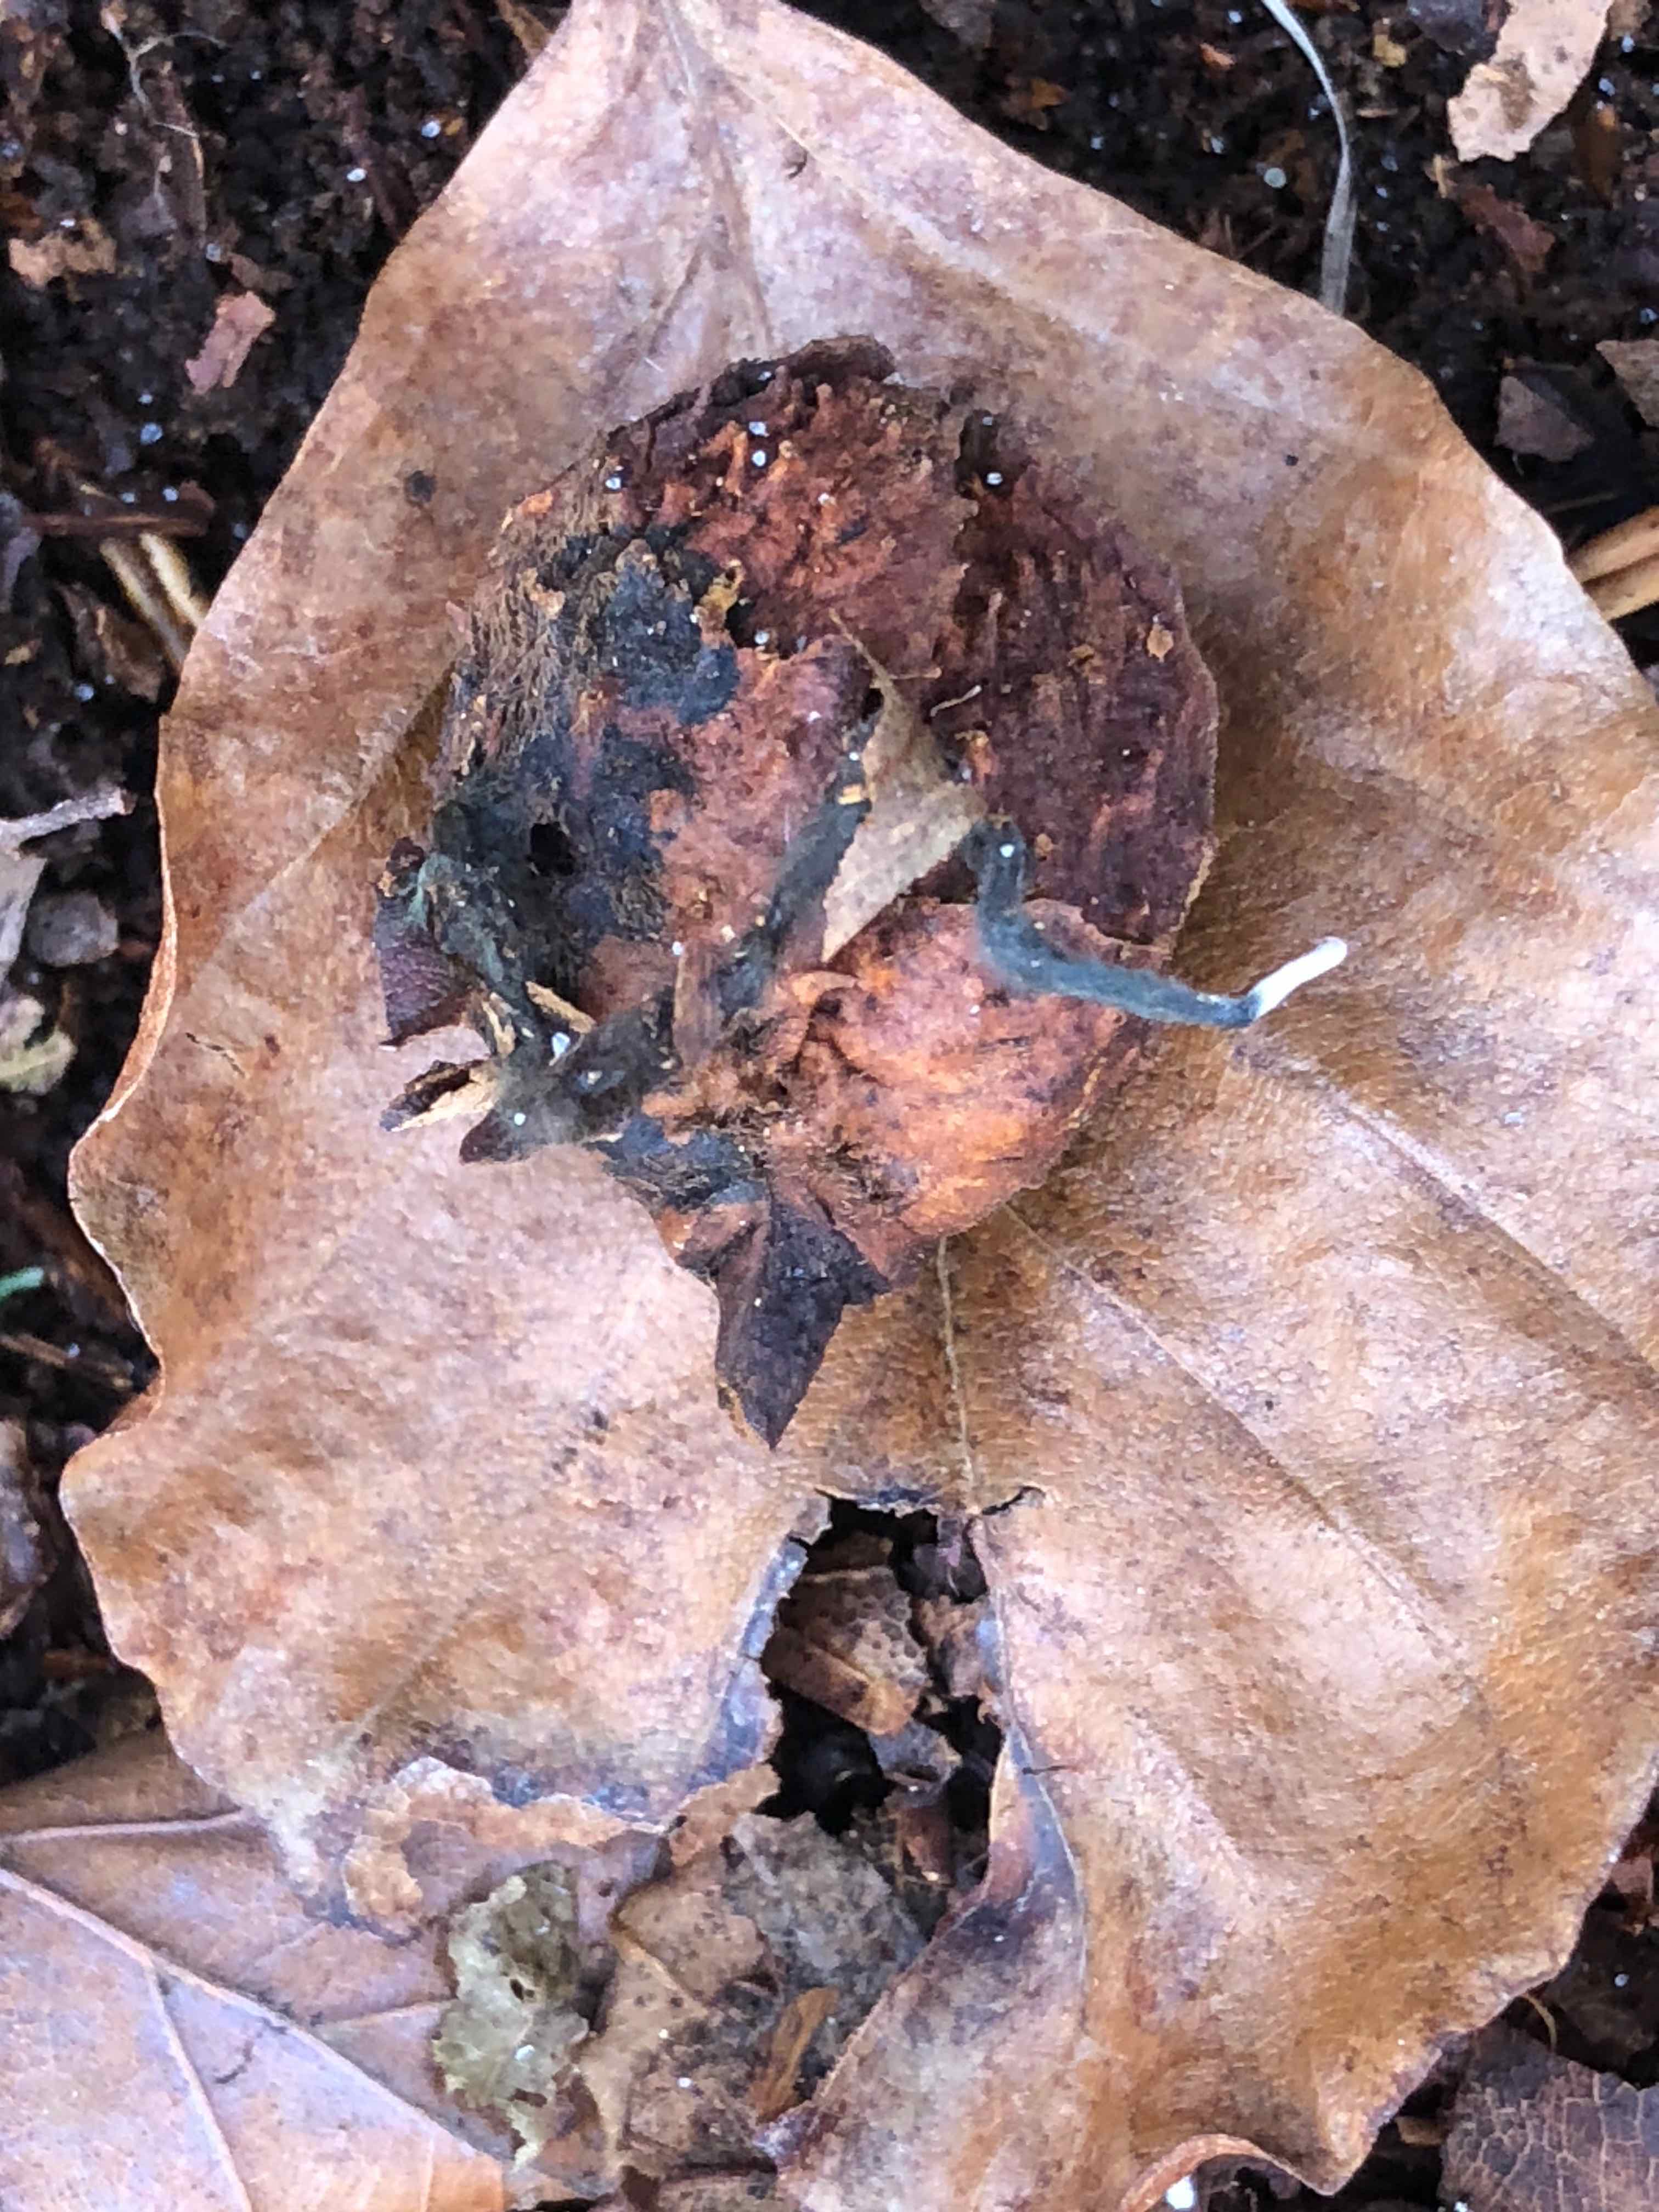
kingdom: Fungi
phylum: Ascomycota
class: Sordariomycetes
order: Xylariales
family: Xylariaceae
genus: Xylaria
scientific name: Xylaria carpophila
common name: bogskål-stødsvamp
